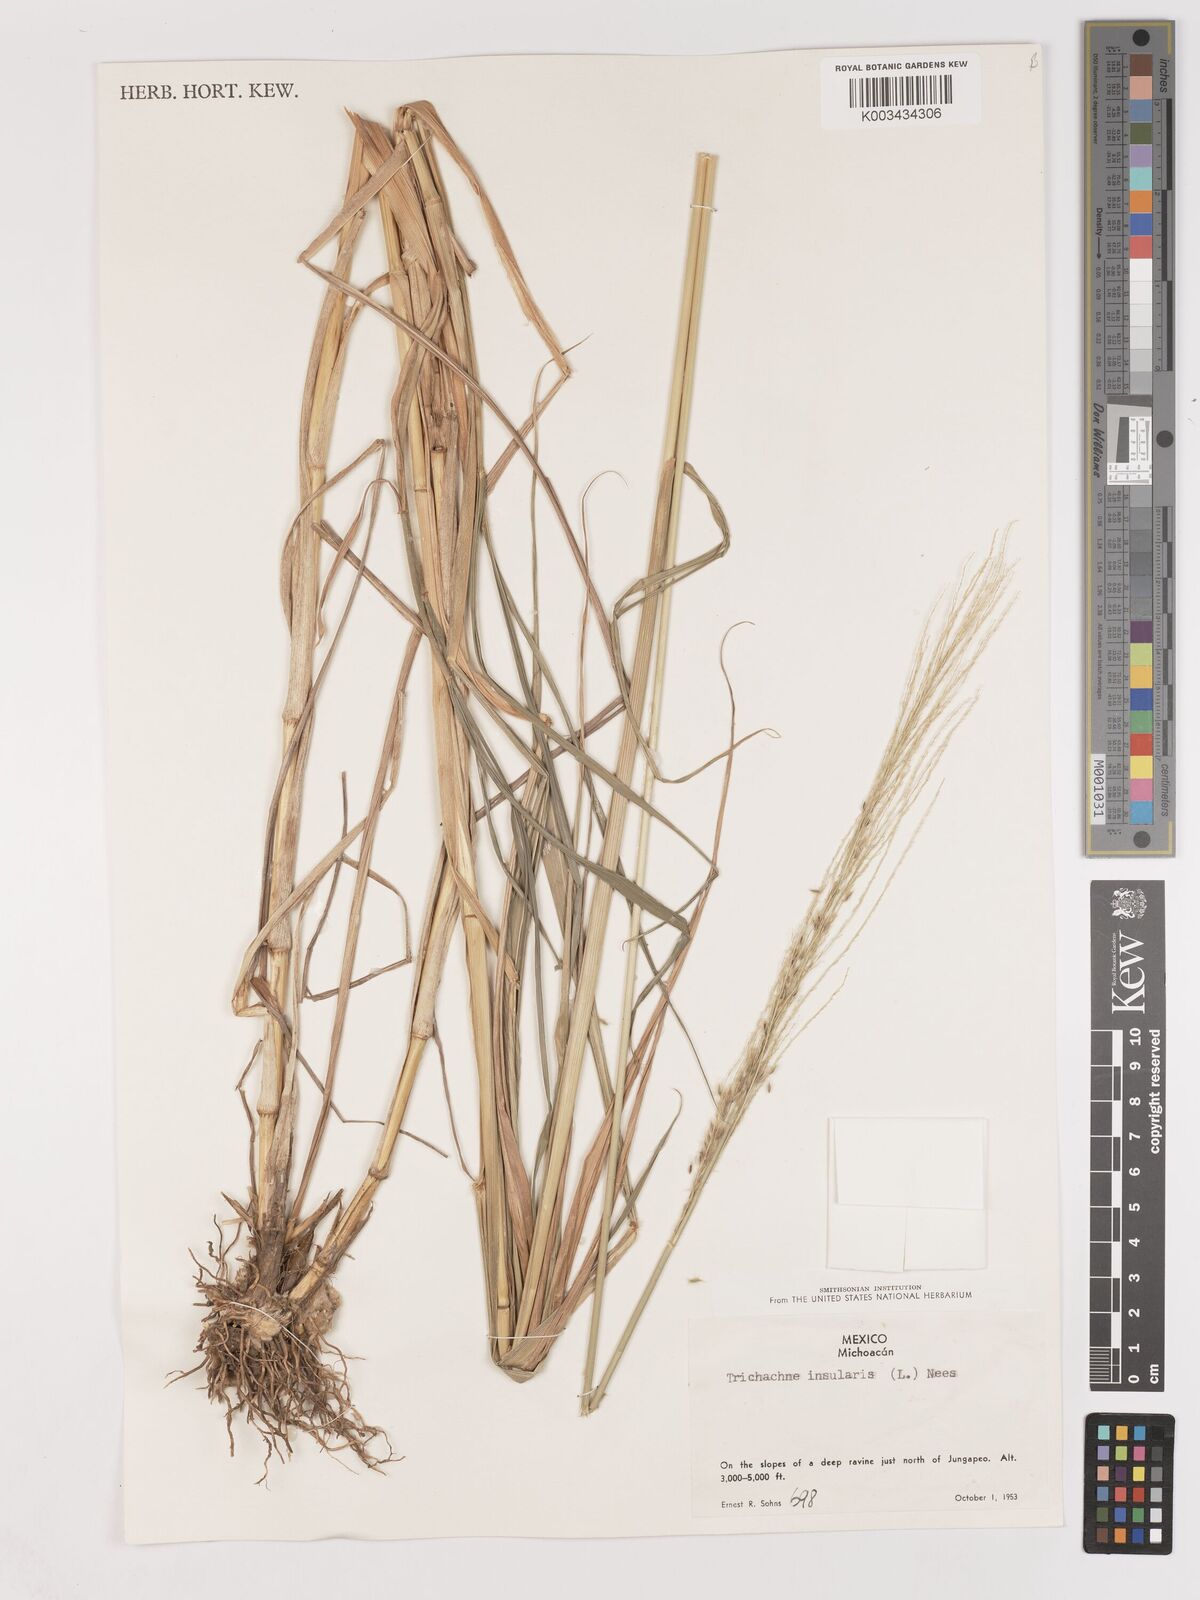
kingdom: Plantae
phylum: Tracheophyta
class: Liliopsida
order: Poales
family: Poaceae
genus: Digitaria
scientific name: Digitaria insularis
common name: Sourgrass
